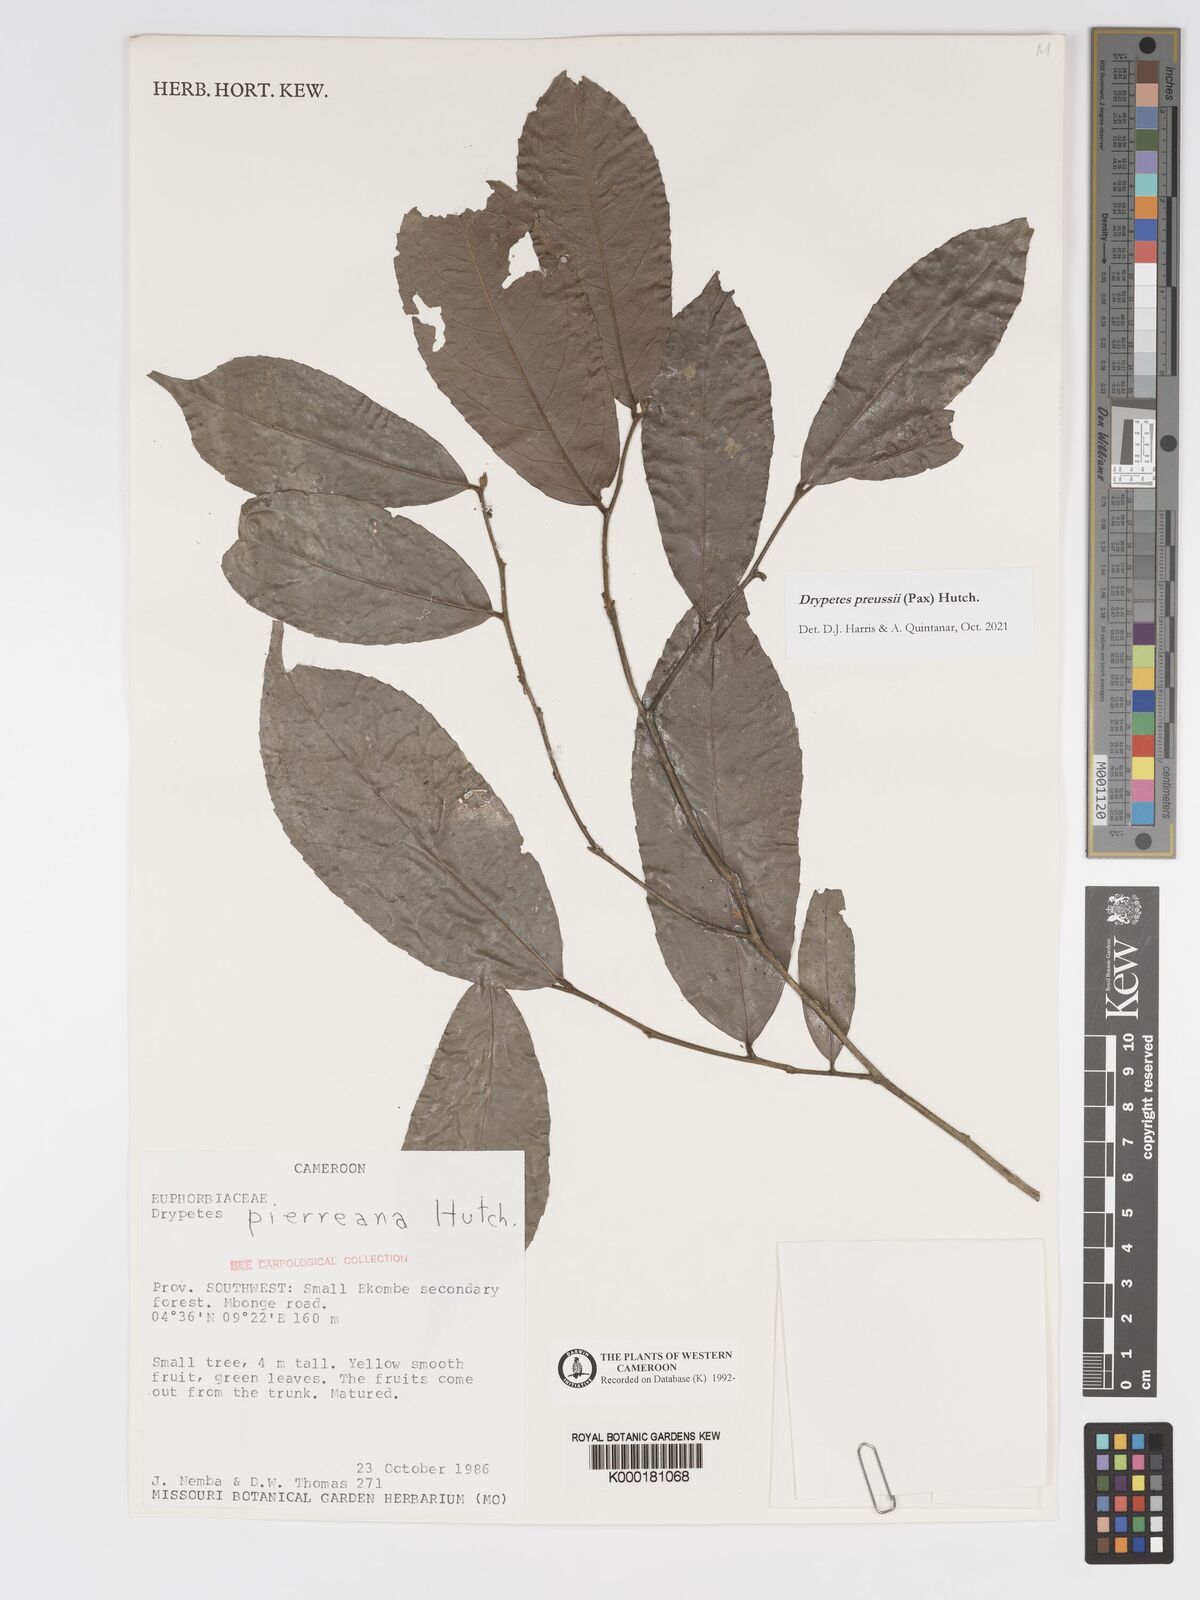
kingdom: Plantae
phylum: Tracheophyta
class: Magnoliopsida
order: Malpighiales
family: Putranjivaceae
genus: Drypetes
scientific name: Drypetes pierreana
